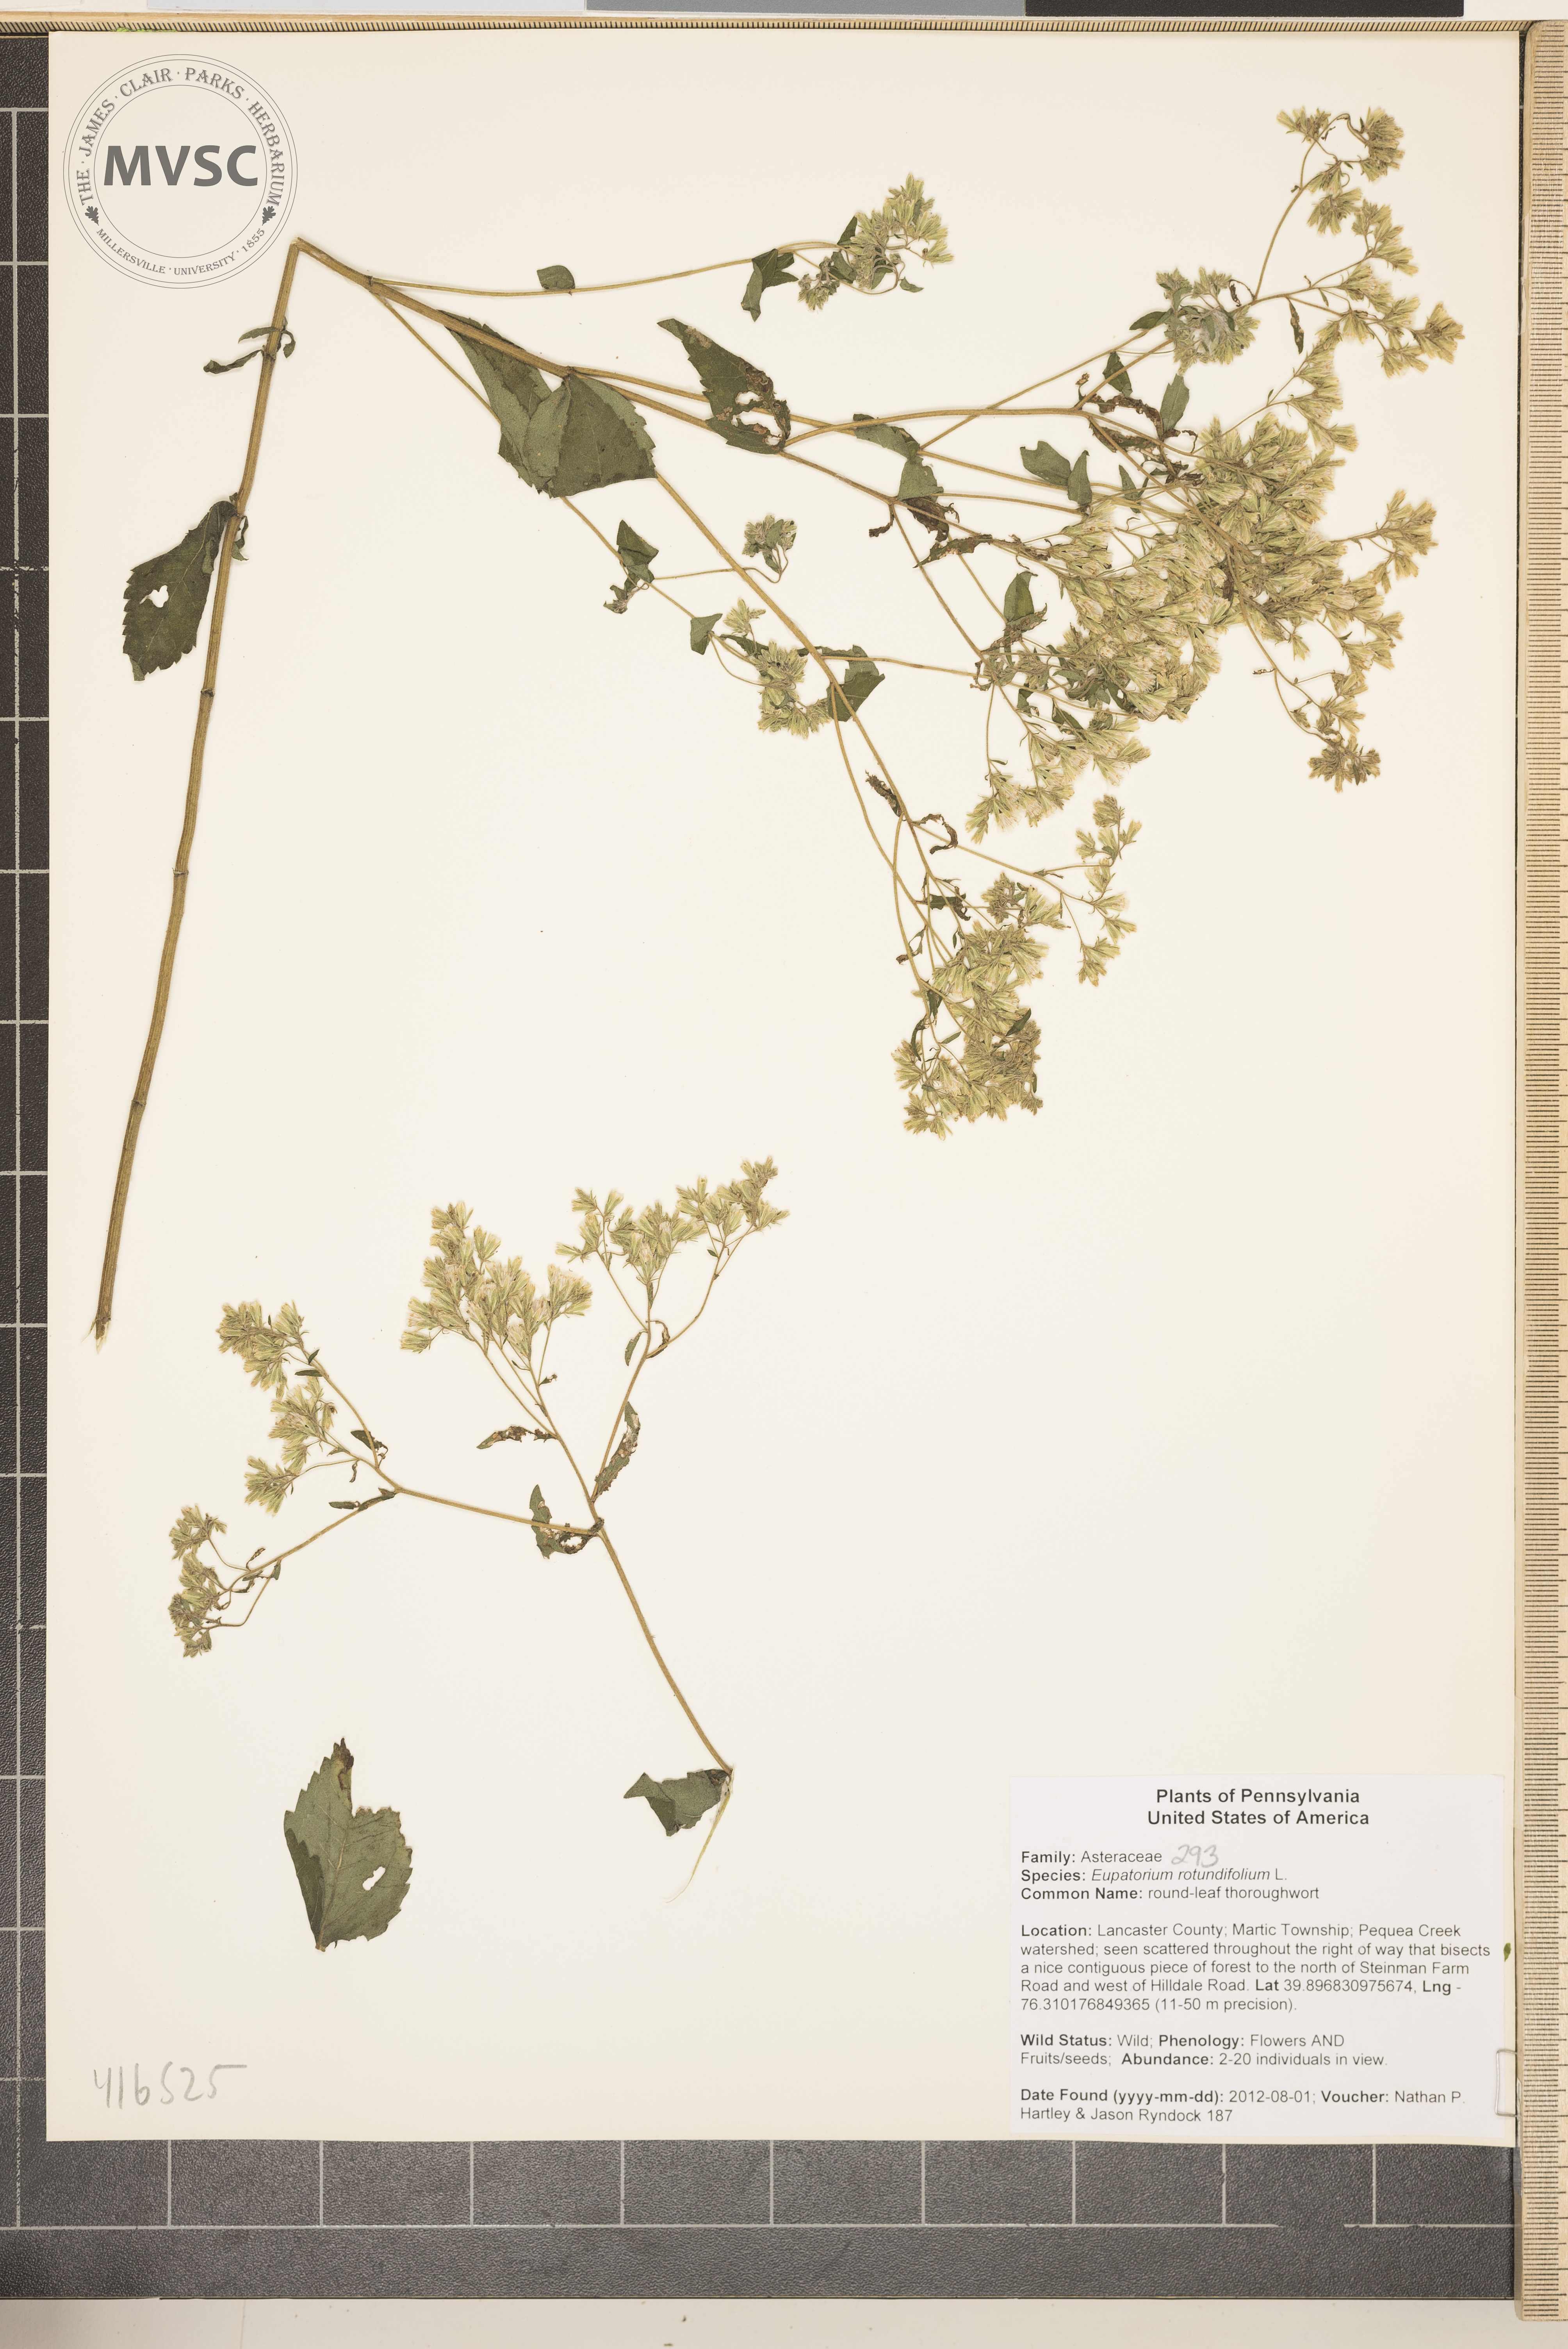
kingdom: Plantae
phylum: Tracheophyta
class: Magnoliopsida
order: Asterales
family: Asteraceae
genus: Eupatorium
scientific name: Eupatorium rotundifolium
